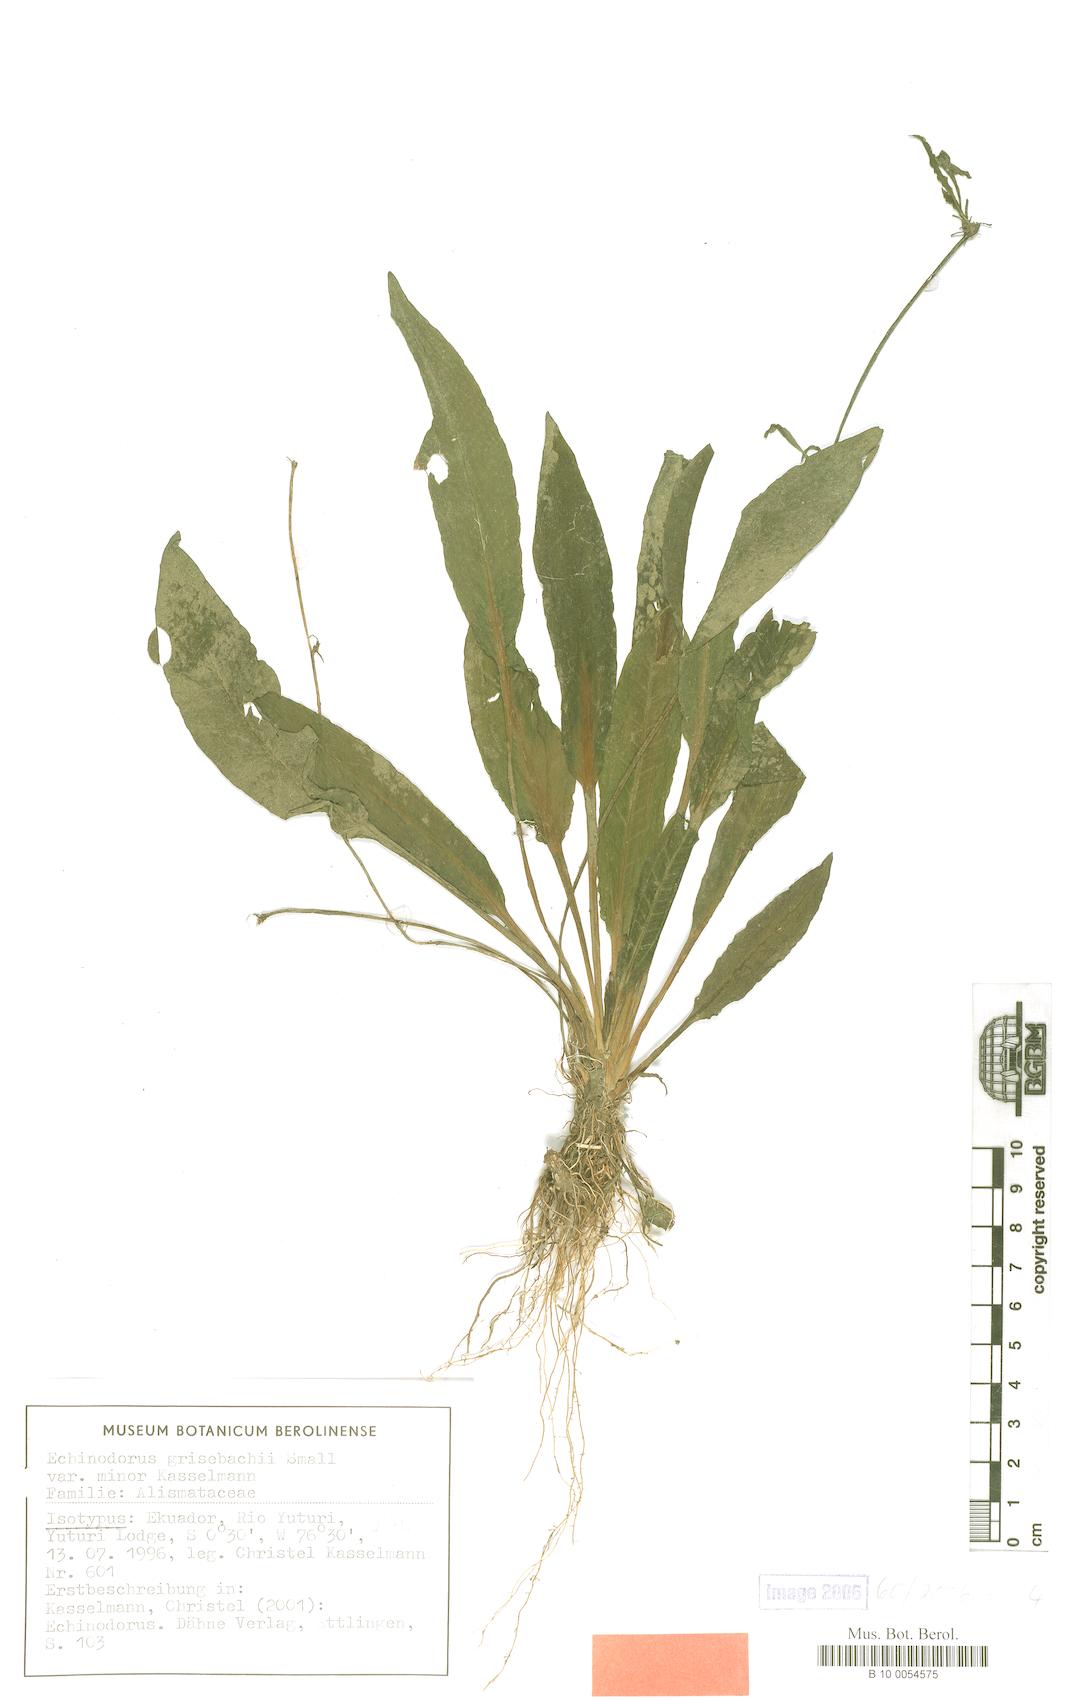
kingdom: Plantae
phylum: Tracheophyta
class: Liliopsida
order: Alismatales
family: Alismataceae
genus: Aquarius
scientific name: Aquarius grisebachii
